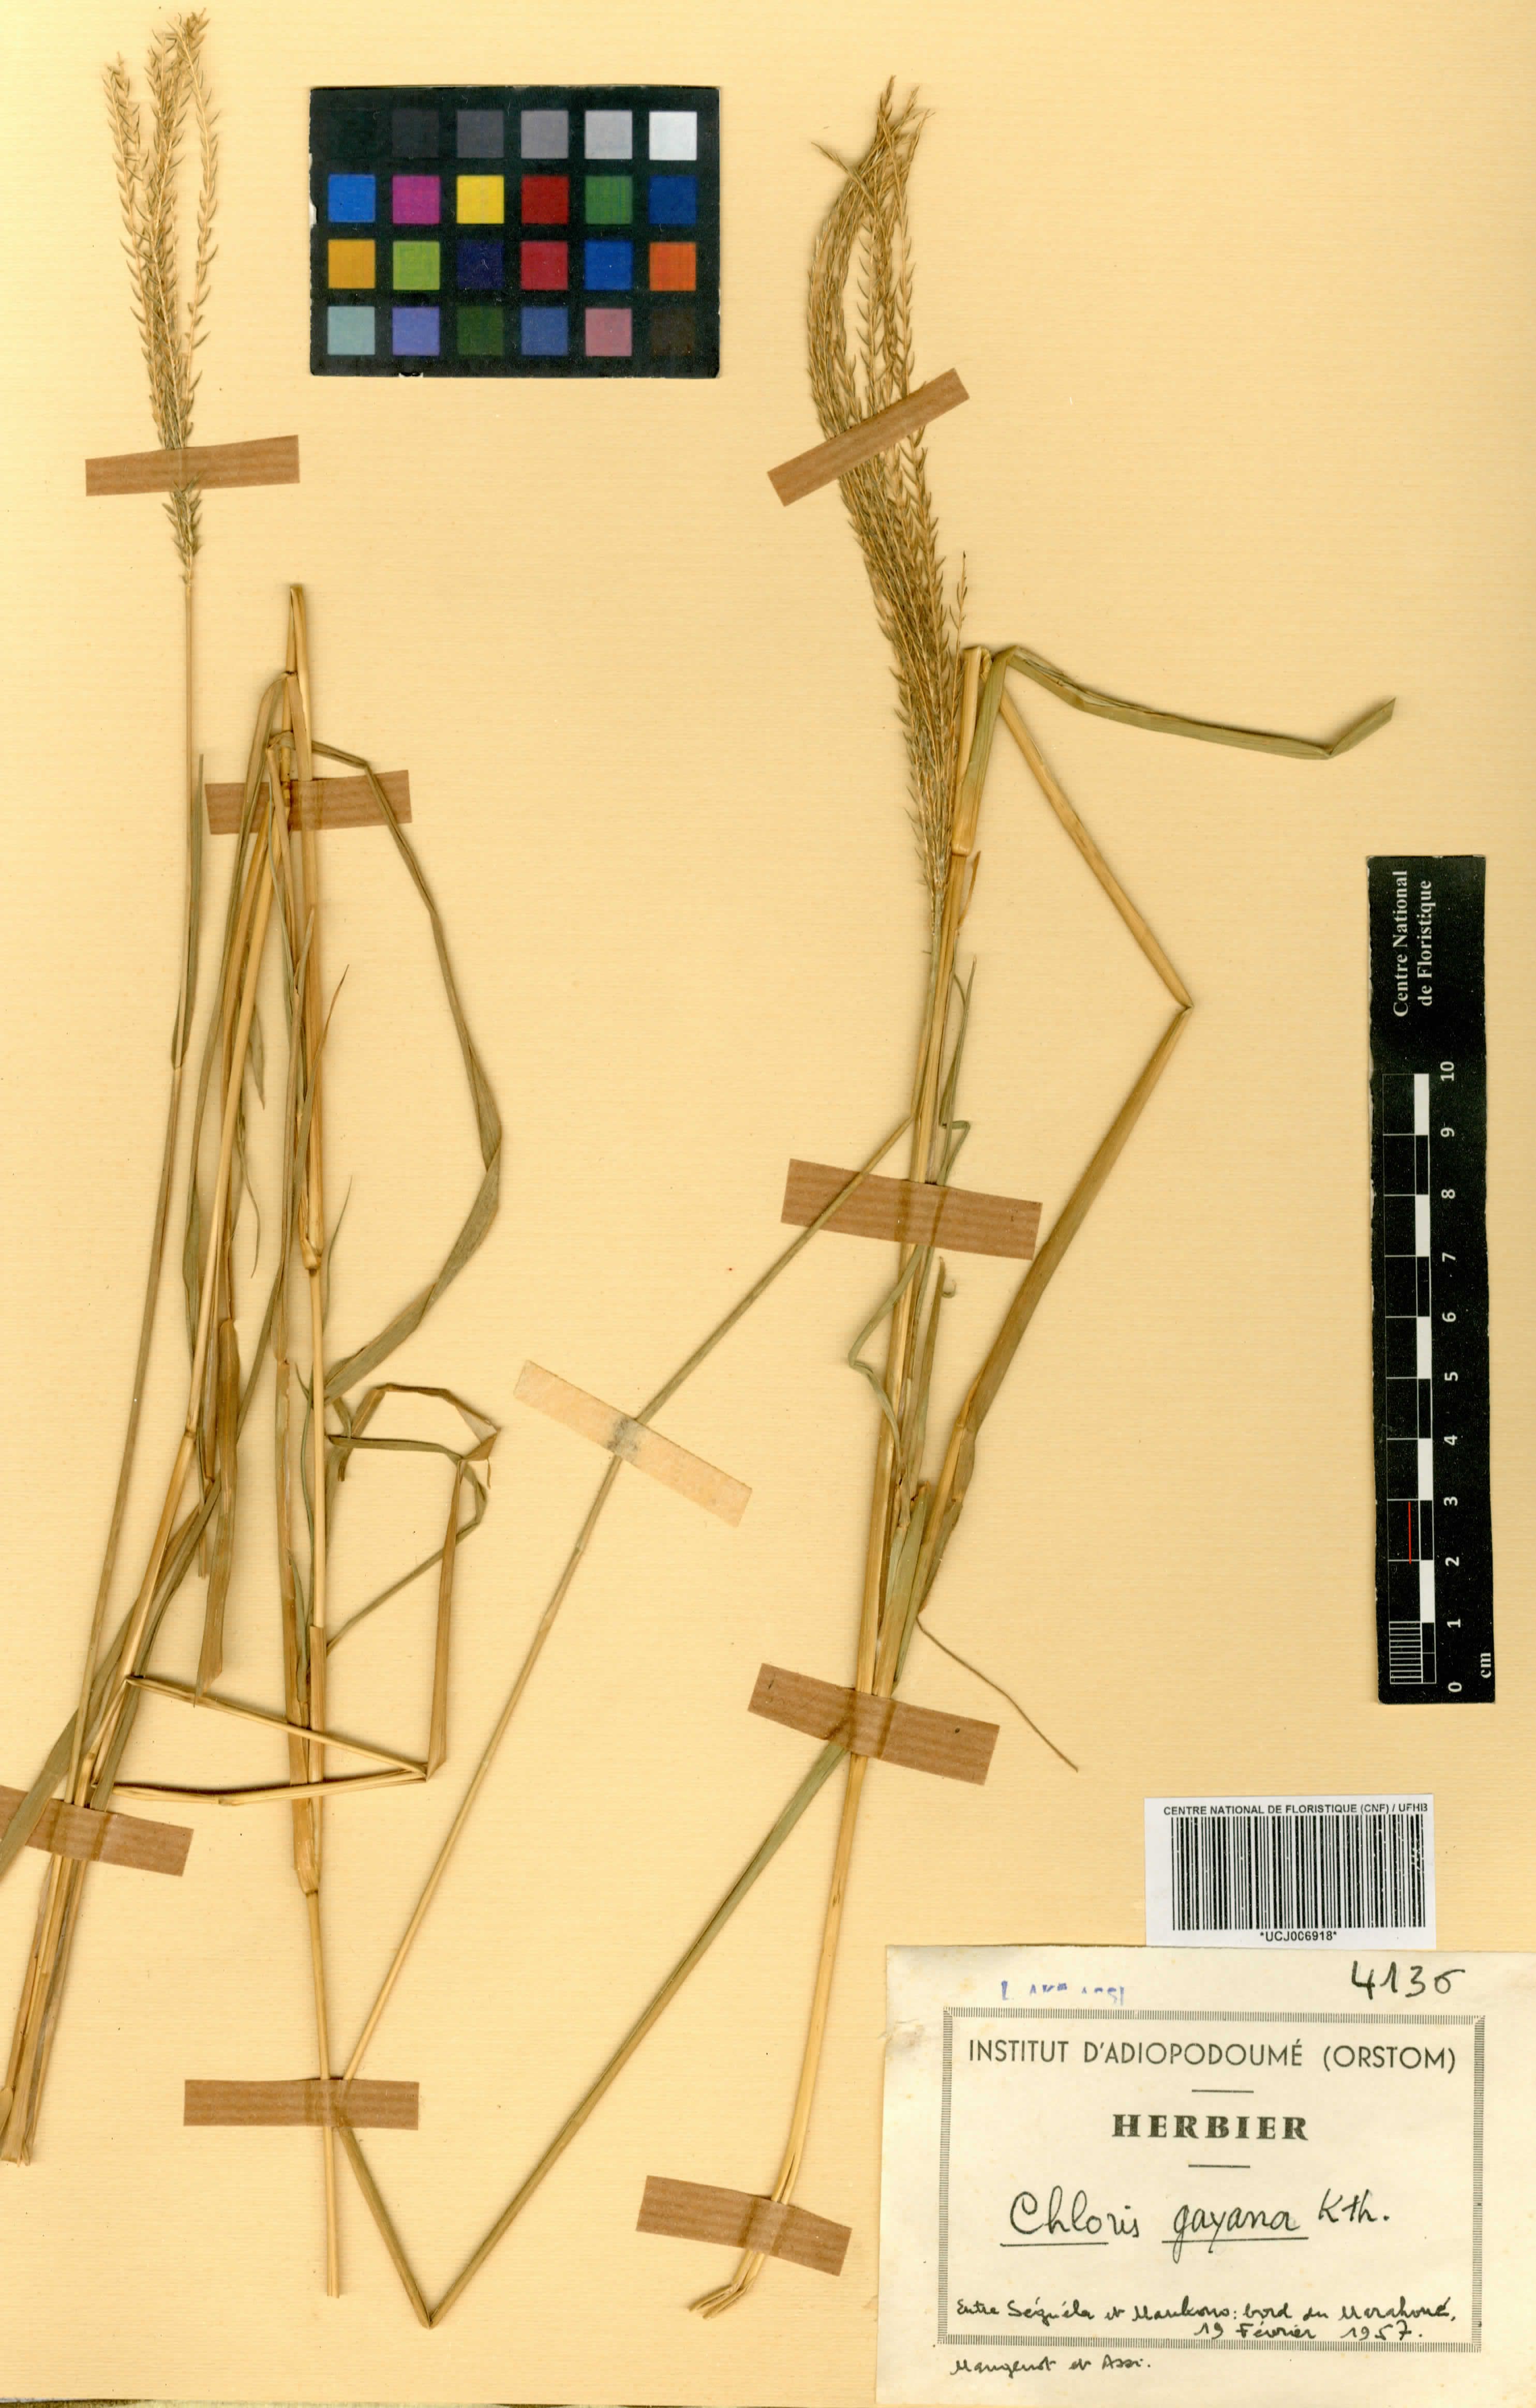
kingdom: Plantae
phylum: Tracheophyta
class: Liliopsida
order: Poales
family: Poaceae
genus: Chloris
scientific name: Chloris gayana
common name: Rhodes grass
